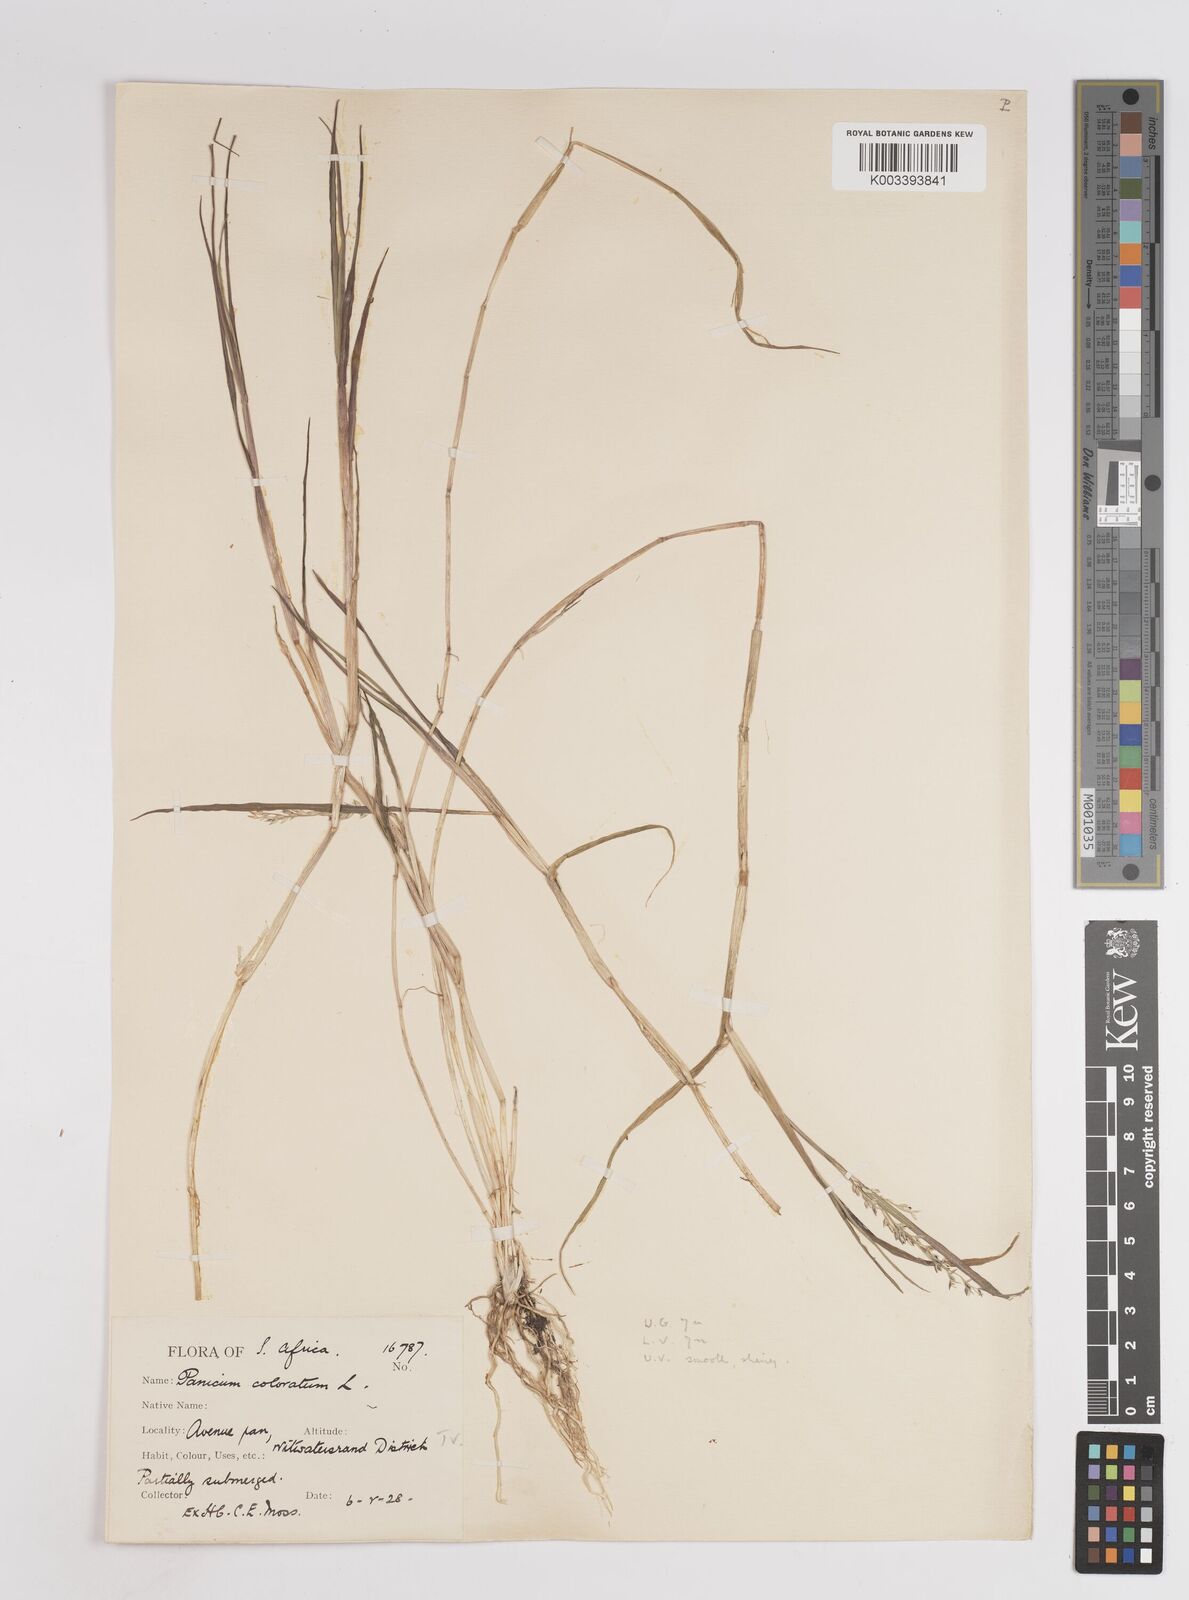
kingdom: Plantae
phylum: Tracheophyta
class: Liliopsida
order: Poales
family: Poaceae
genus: Panicum
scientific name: Panicum hygrocharis
